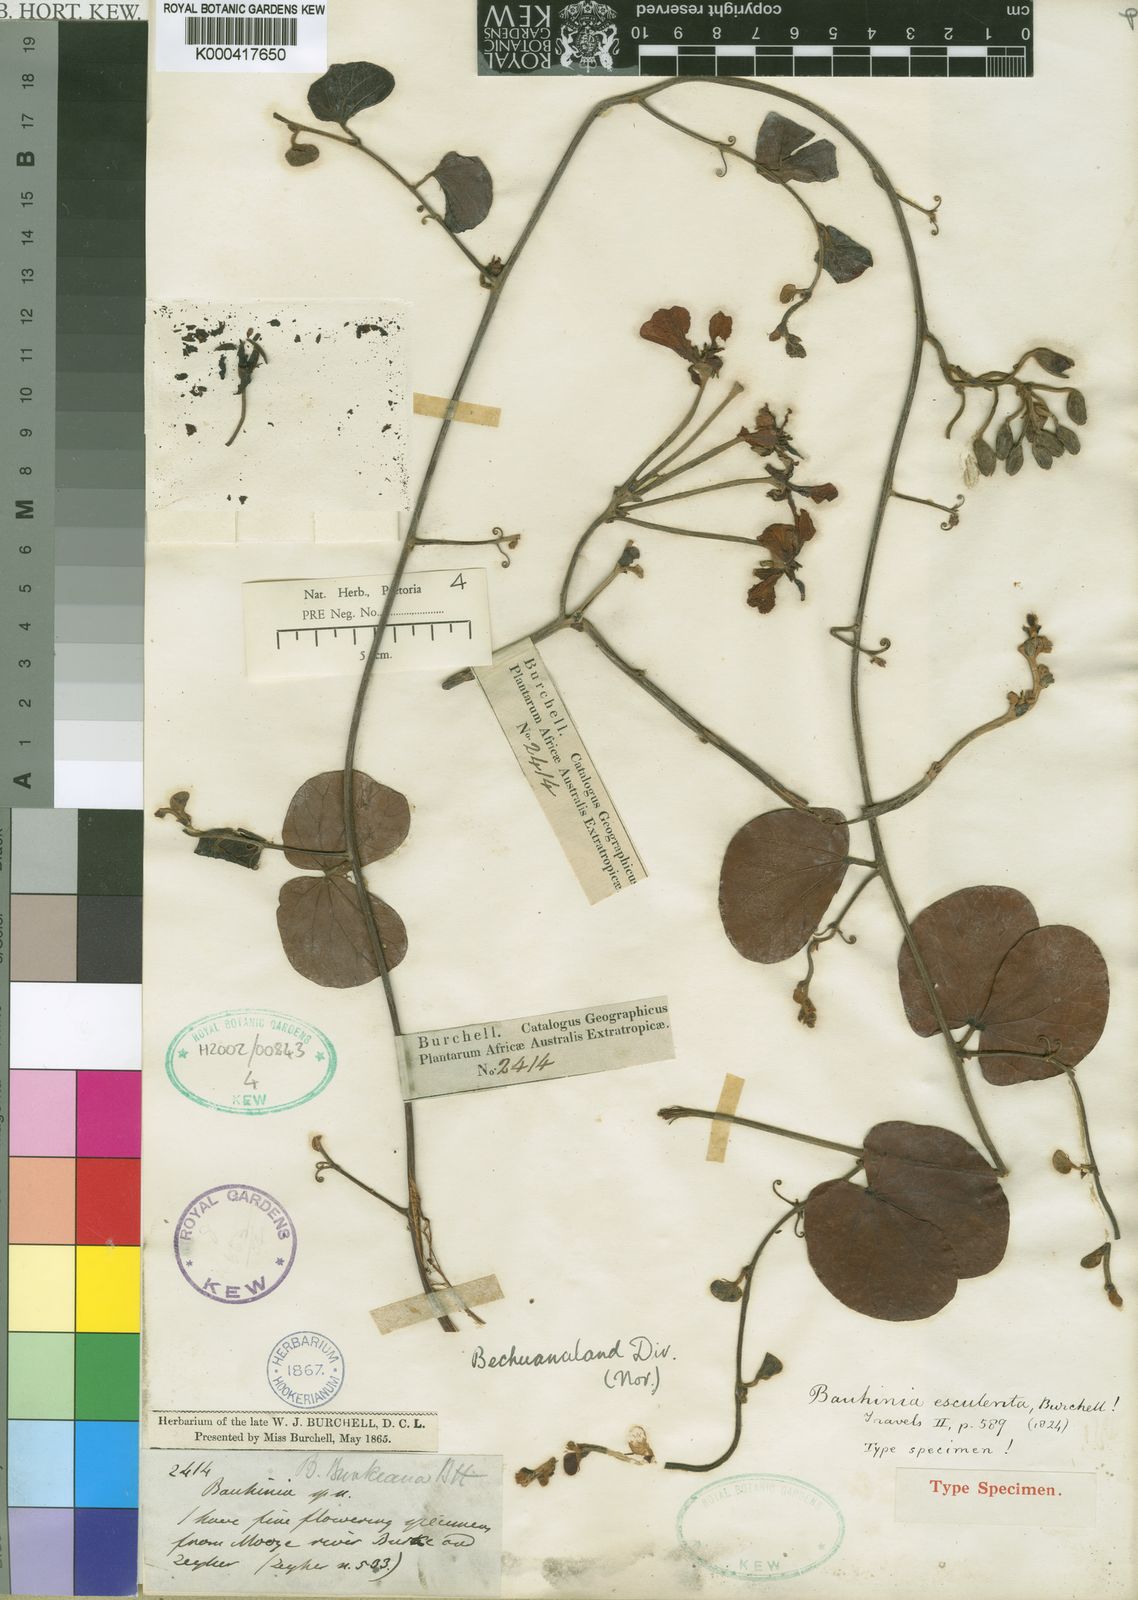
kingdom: Plantae
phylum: Tracheophyta
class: Magnoliopsida
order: Fabales
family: Fabaceae
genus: Tylosema
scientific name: Tylosema
